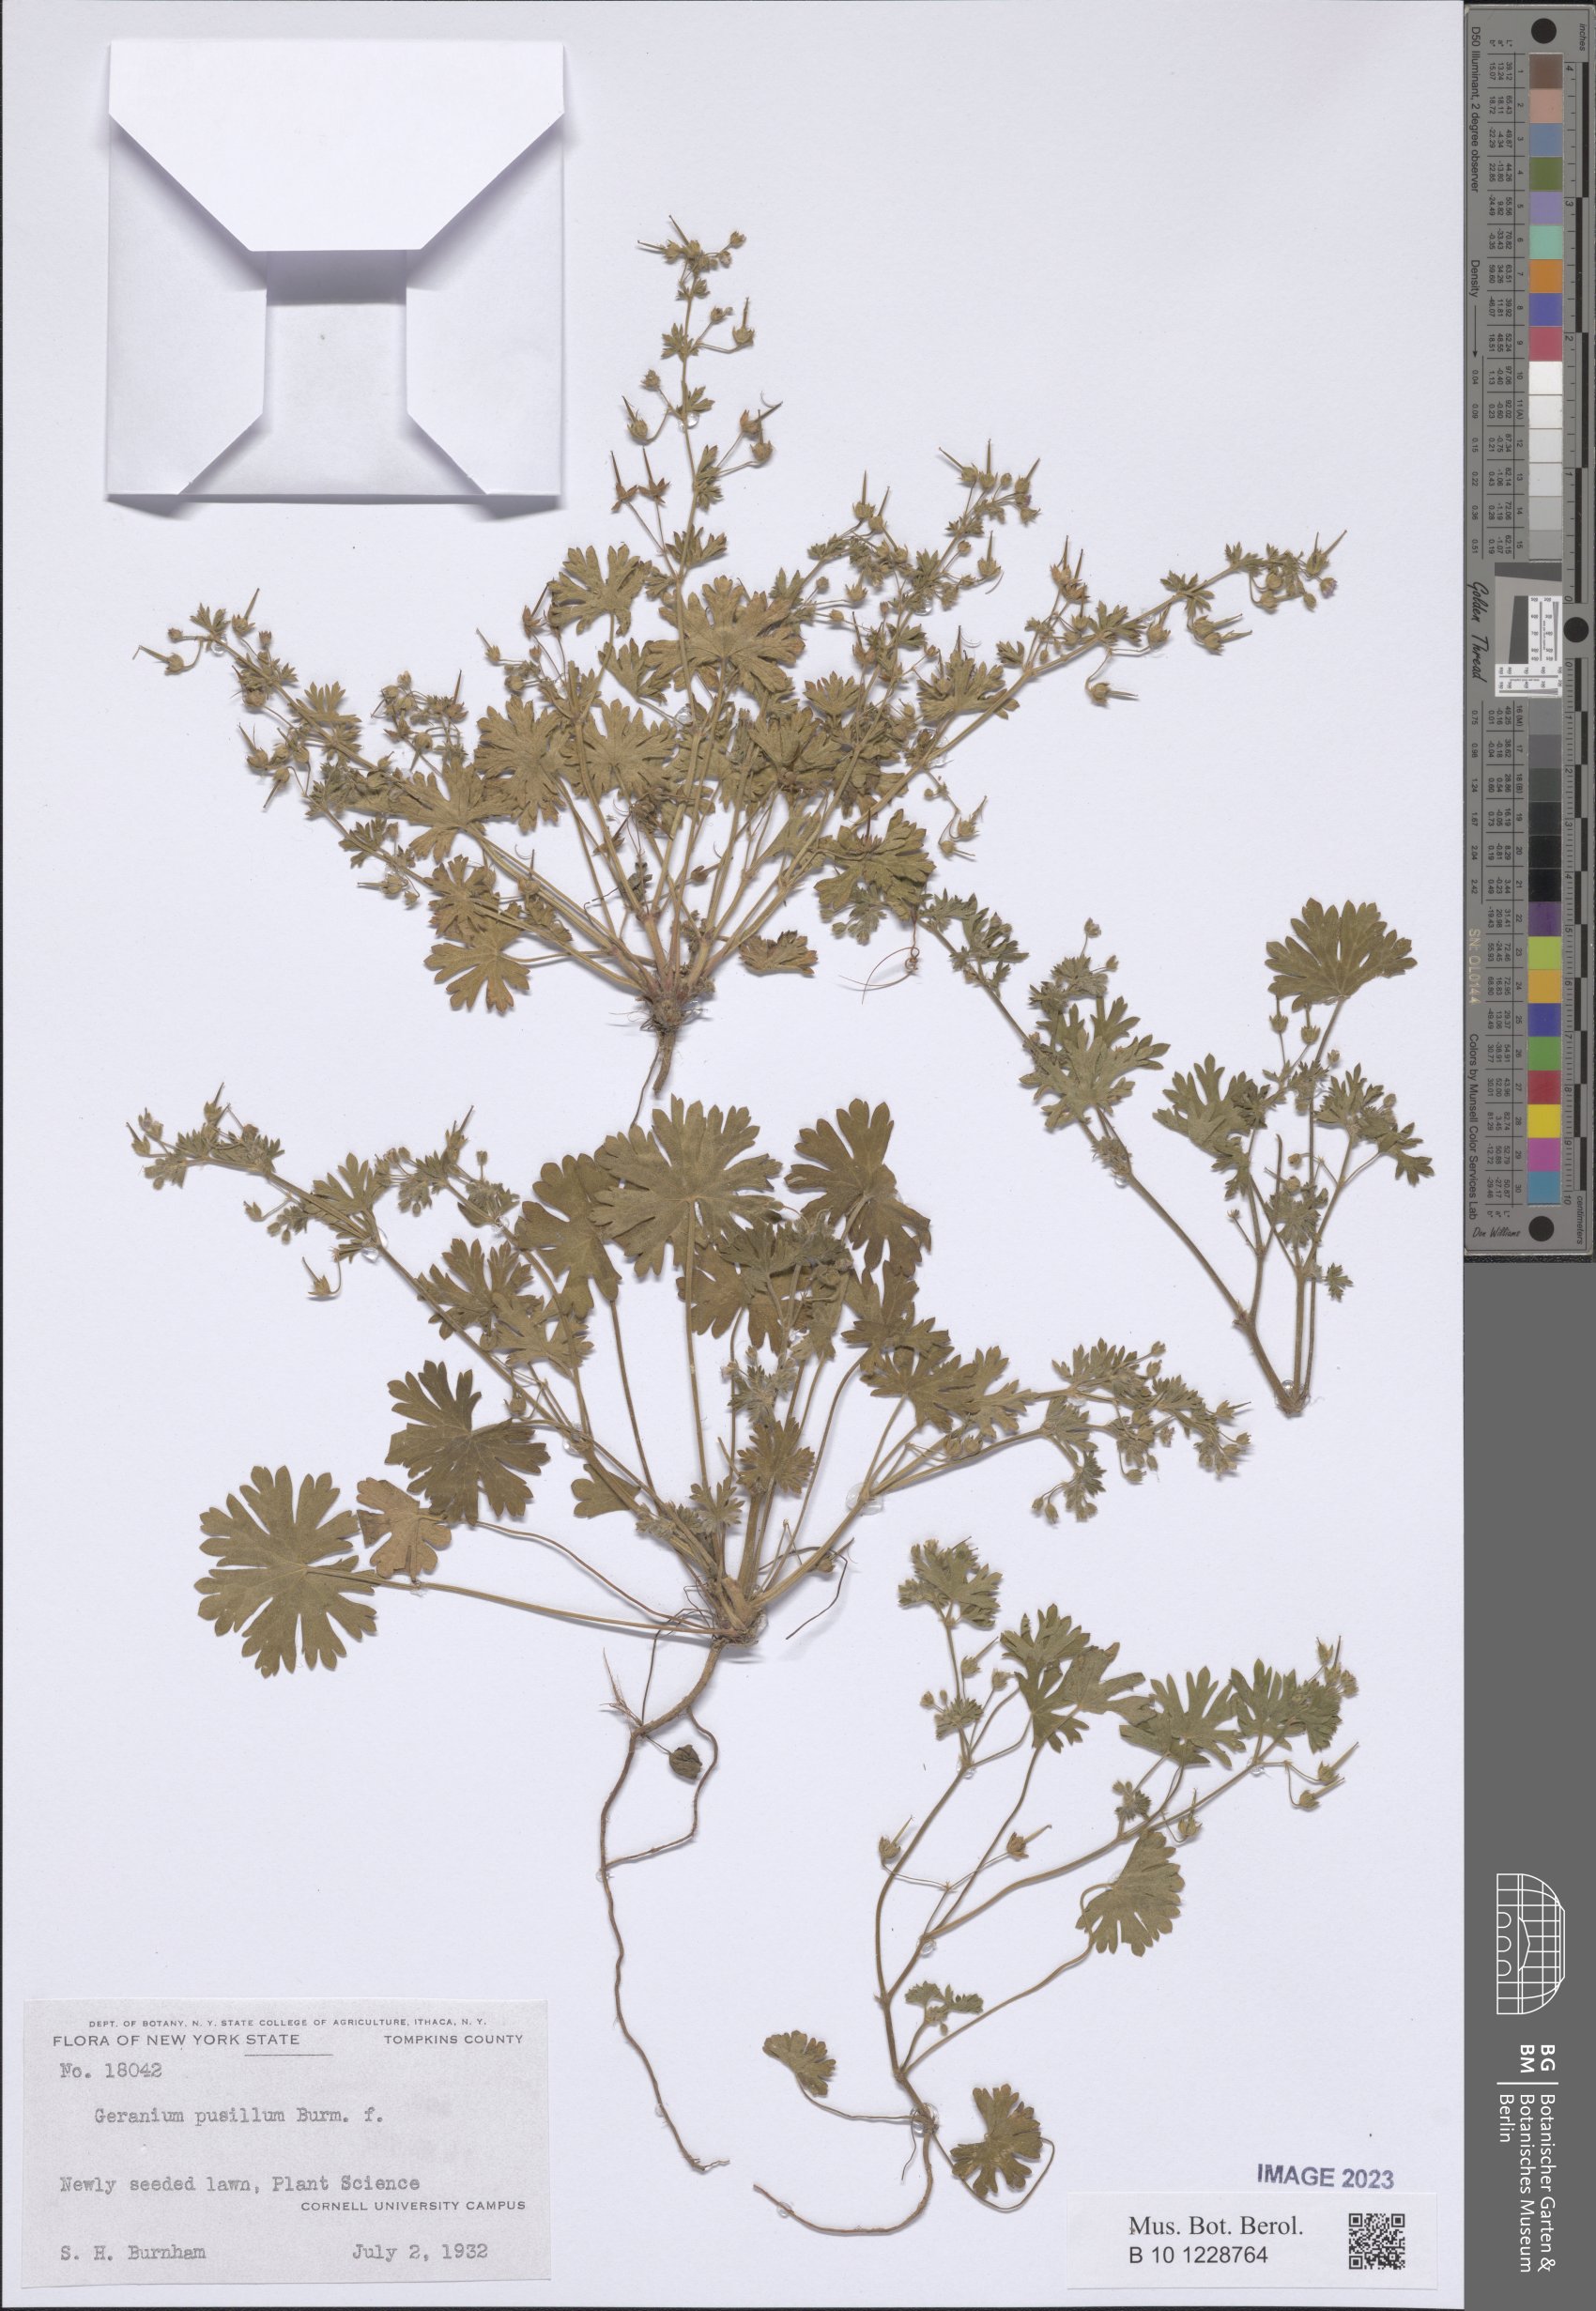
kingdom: Plantae
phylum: Tracheophyta
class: Magnoliopsida
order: Geraniales
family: Geraniaceae
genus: Geranium
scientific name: Geranium pusillum
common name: Small geranium
